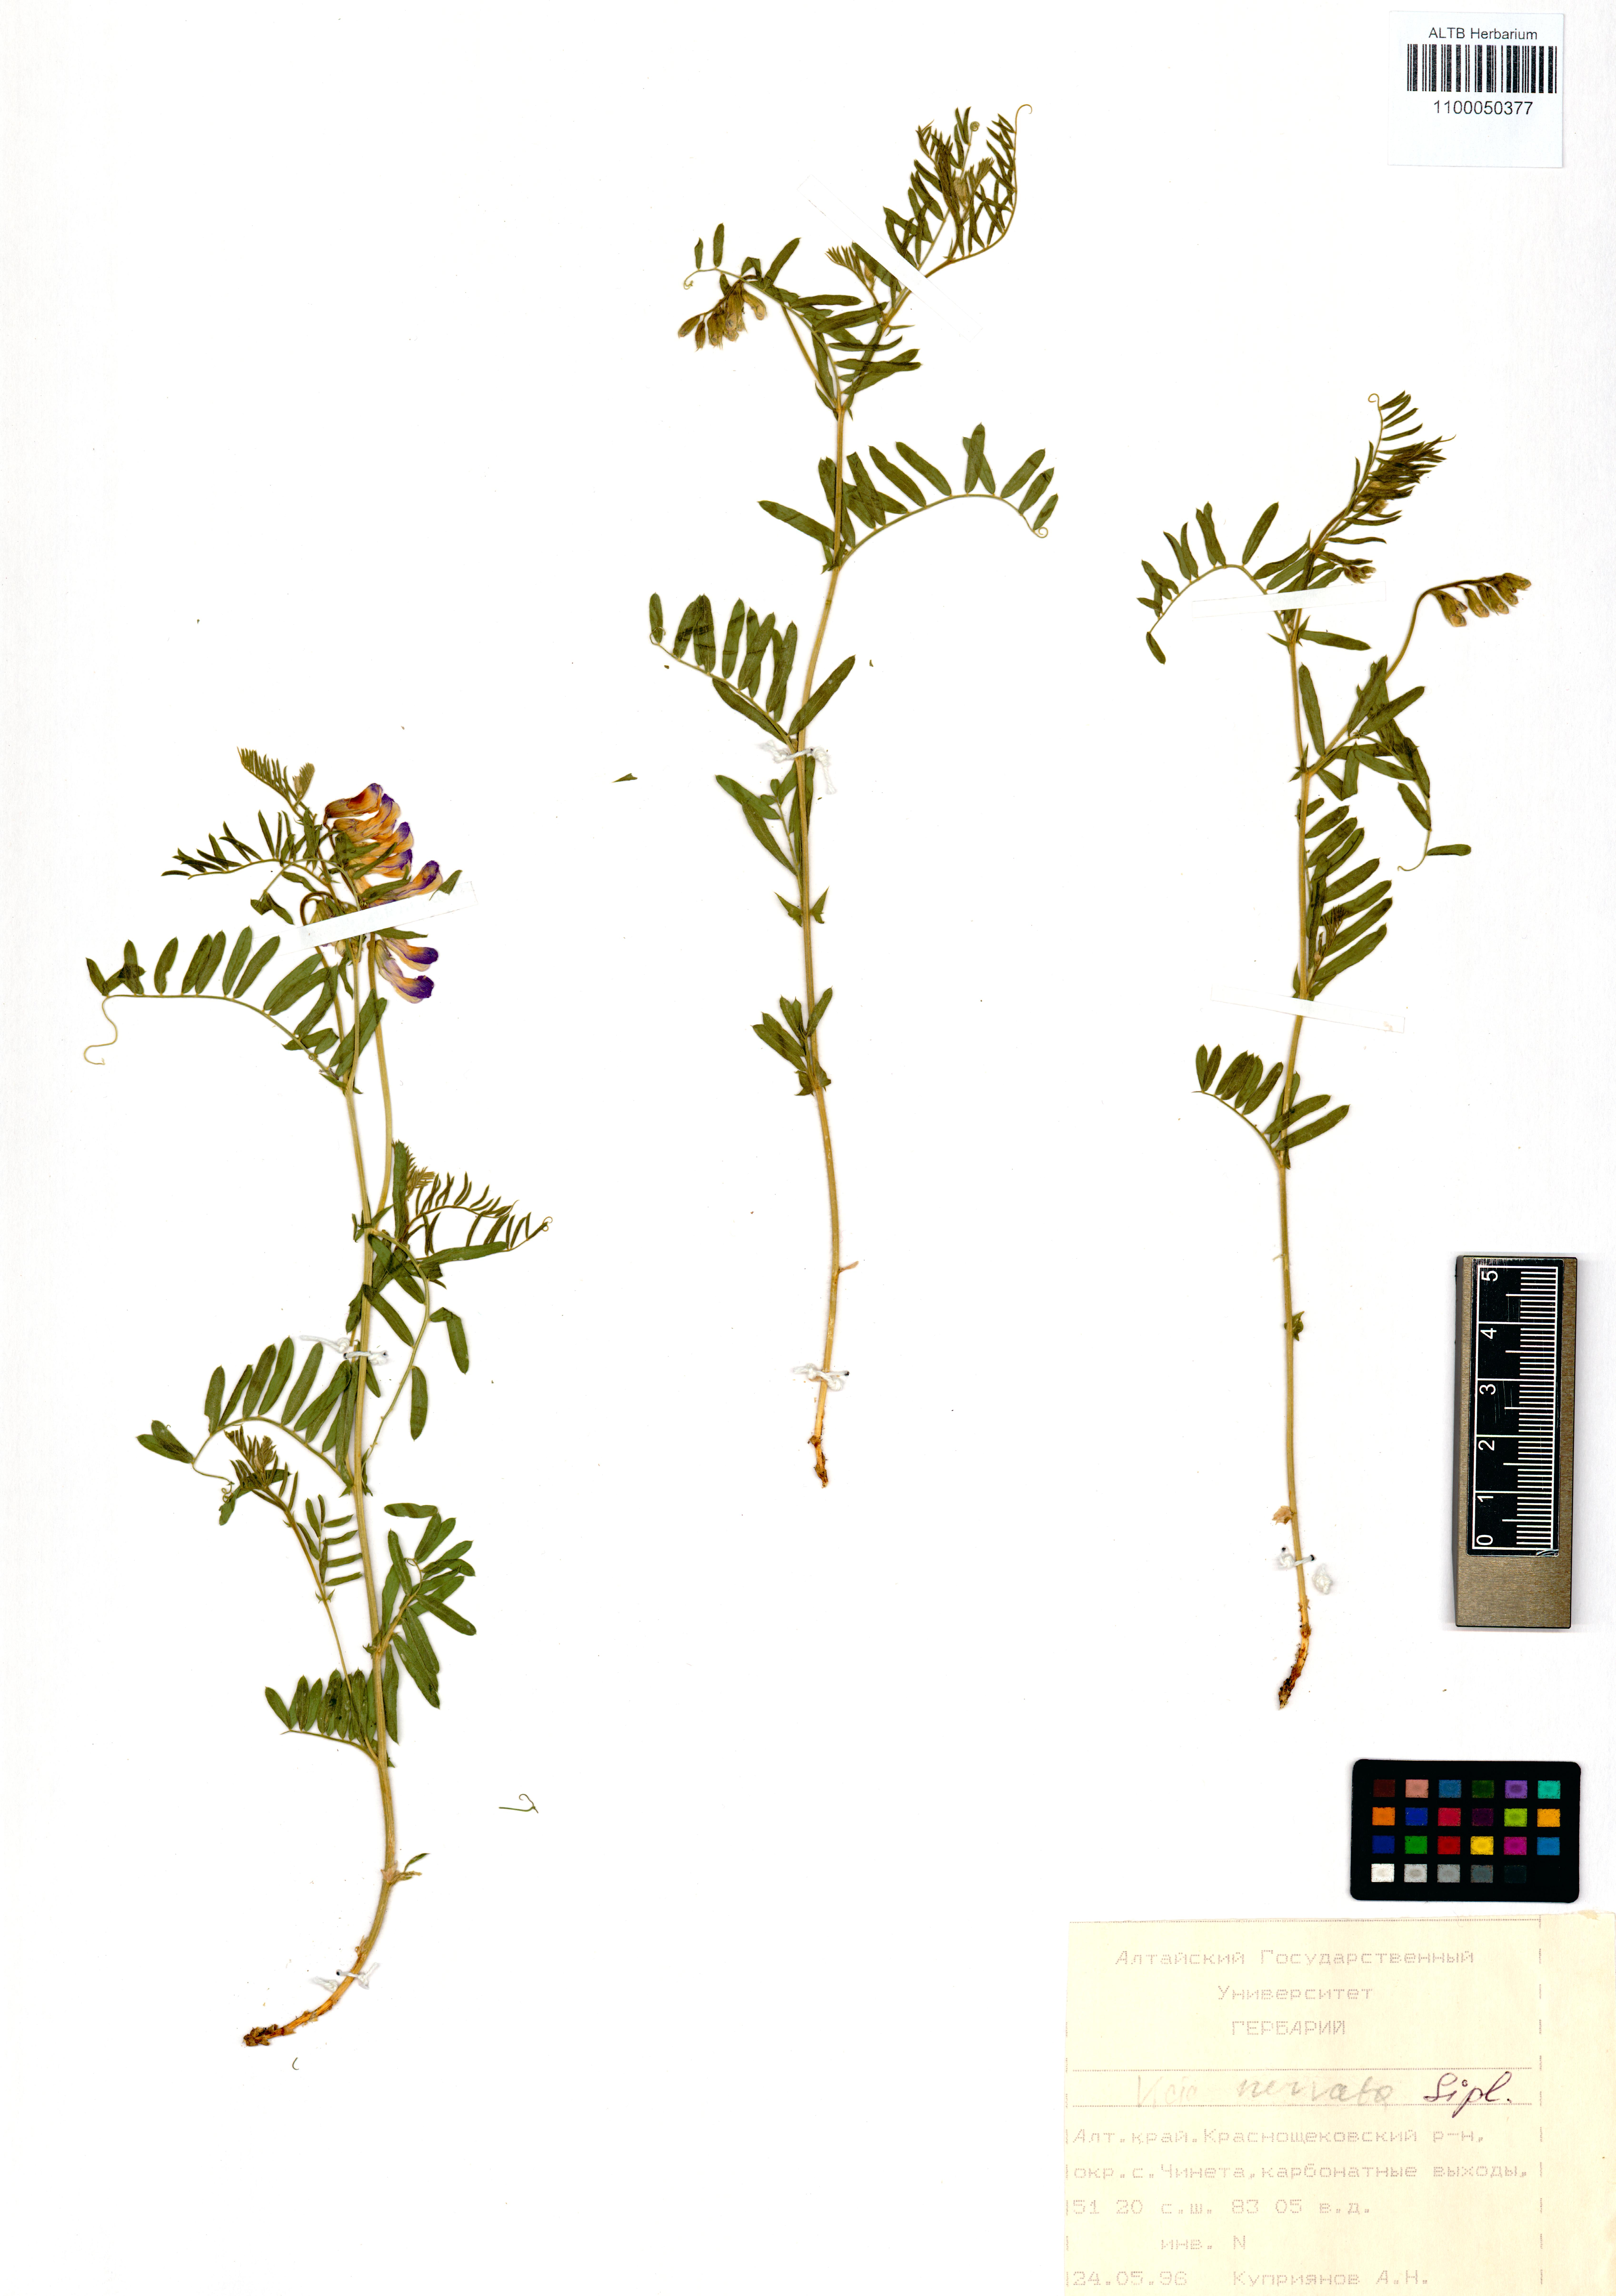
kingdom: Plantae
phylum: Tracheophyta
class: Magnoliopsida
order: Fabales
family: Fabaceae
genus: Vicia
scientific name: Vicia multicaulis
